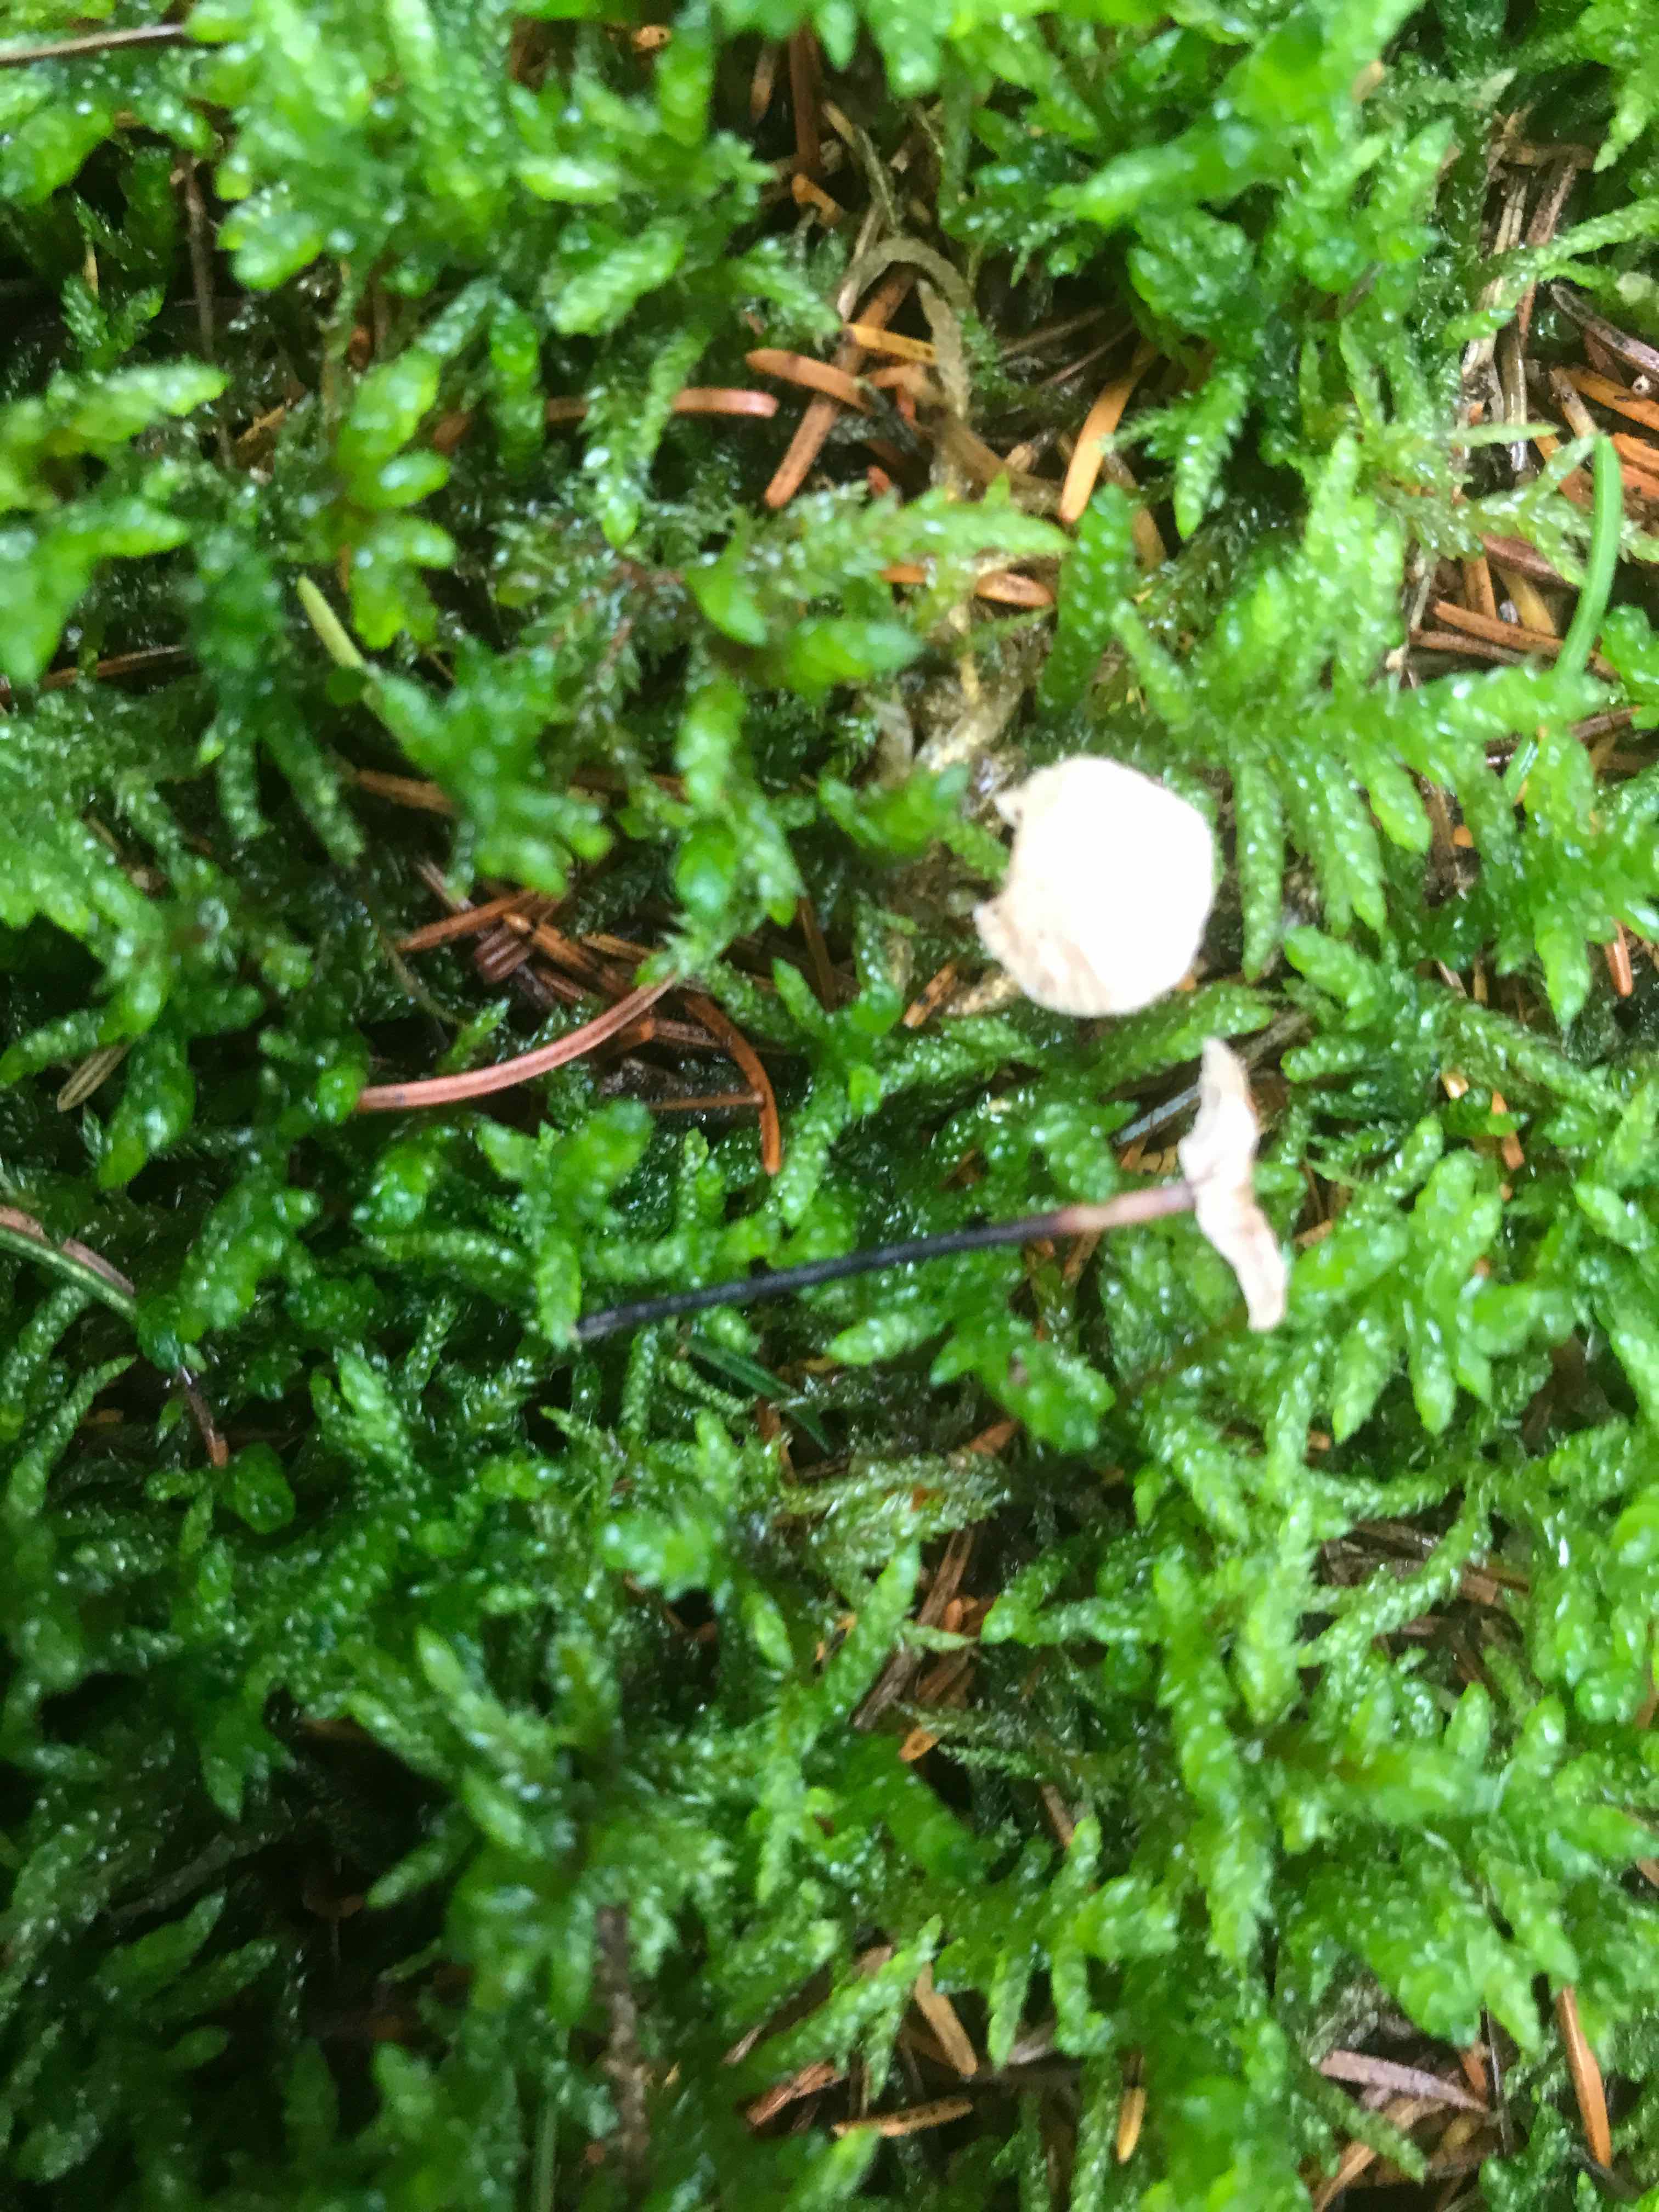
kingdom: Fungi
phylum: Basidiomycota
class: Agaricomycetes
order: Agaricales
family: Omphalotaceae
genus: Paragymnopus
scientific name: Paragymnopus perforans
